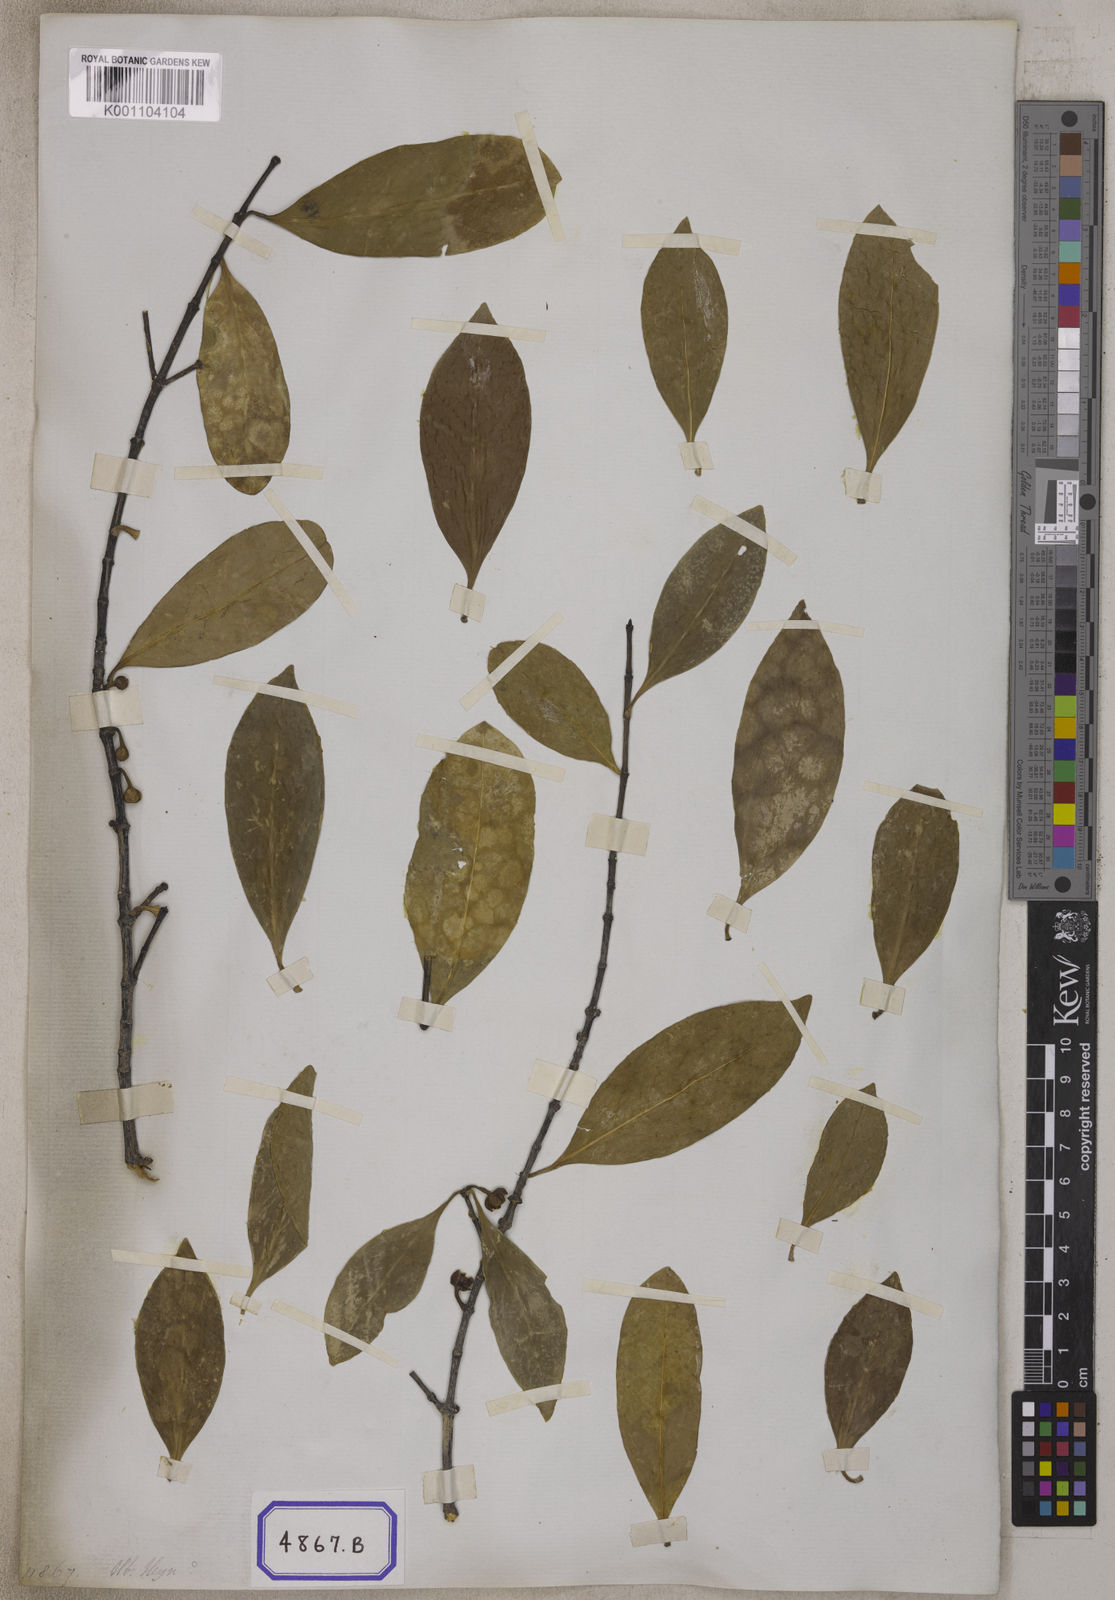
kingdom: Plantae
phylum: Tracheophyta
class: Magnoliopsida
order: Malpighiales
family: Clusiaceae
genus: Garcinia
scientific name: Garcinia zeylanica
